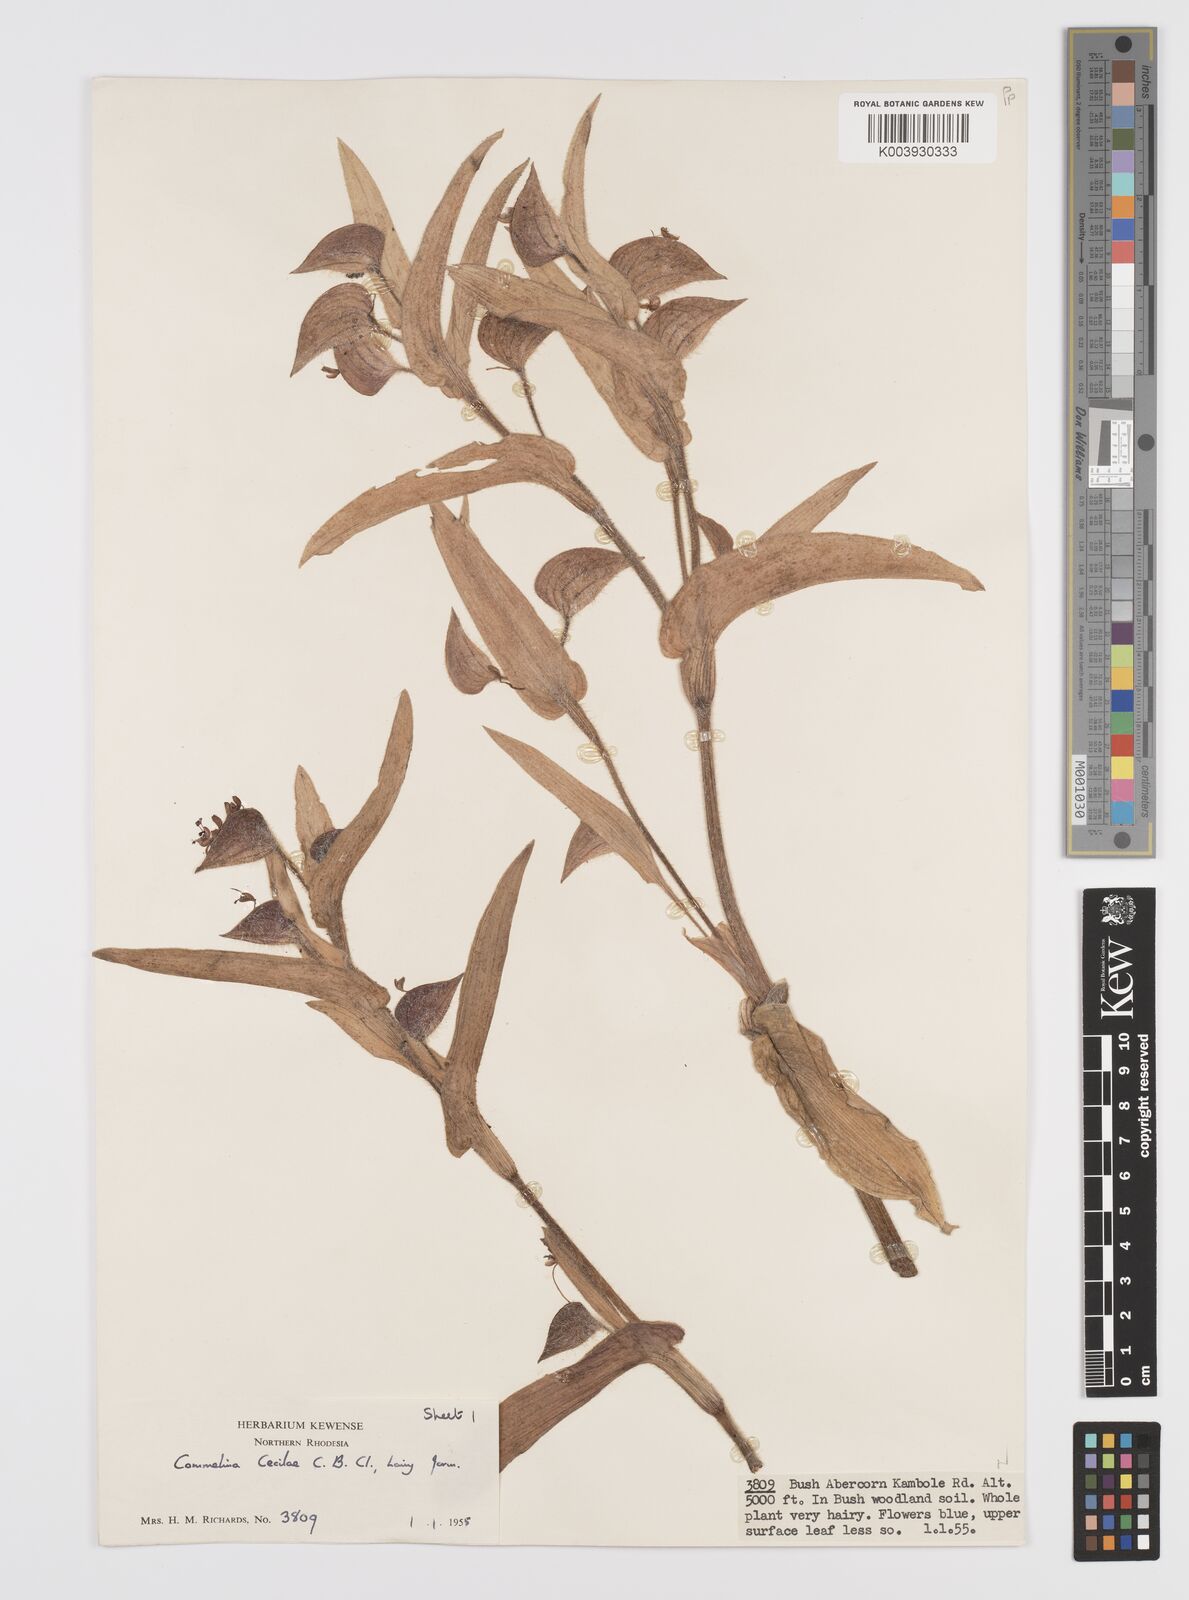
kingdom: Plantae
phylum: Tracheophyta
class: Liliopsida
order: Commelinales
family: Commelinaceae
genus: Commelina
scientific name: Commelina cecilae
